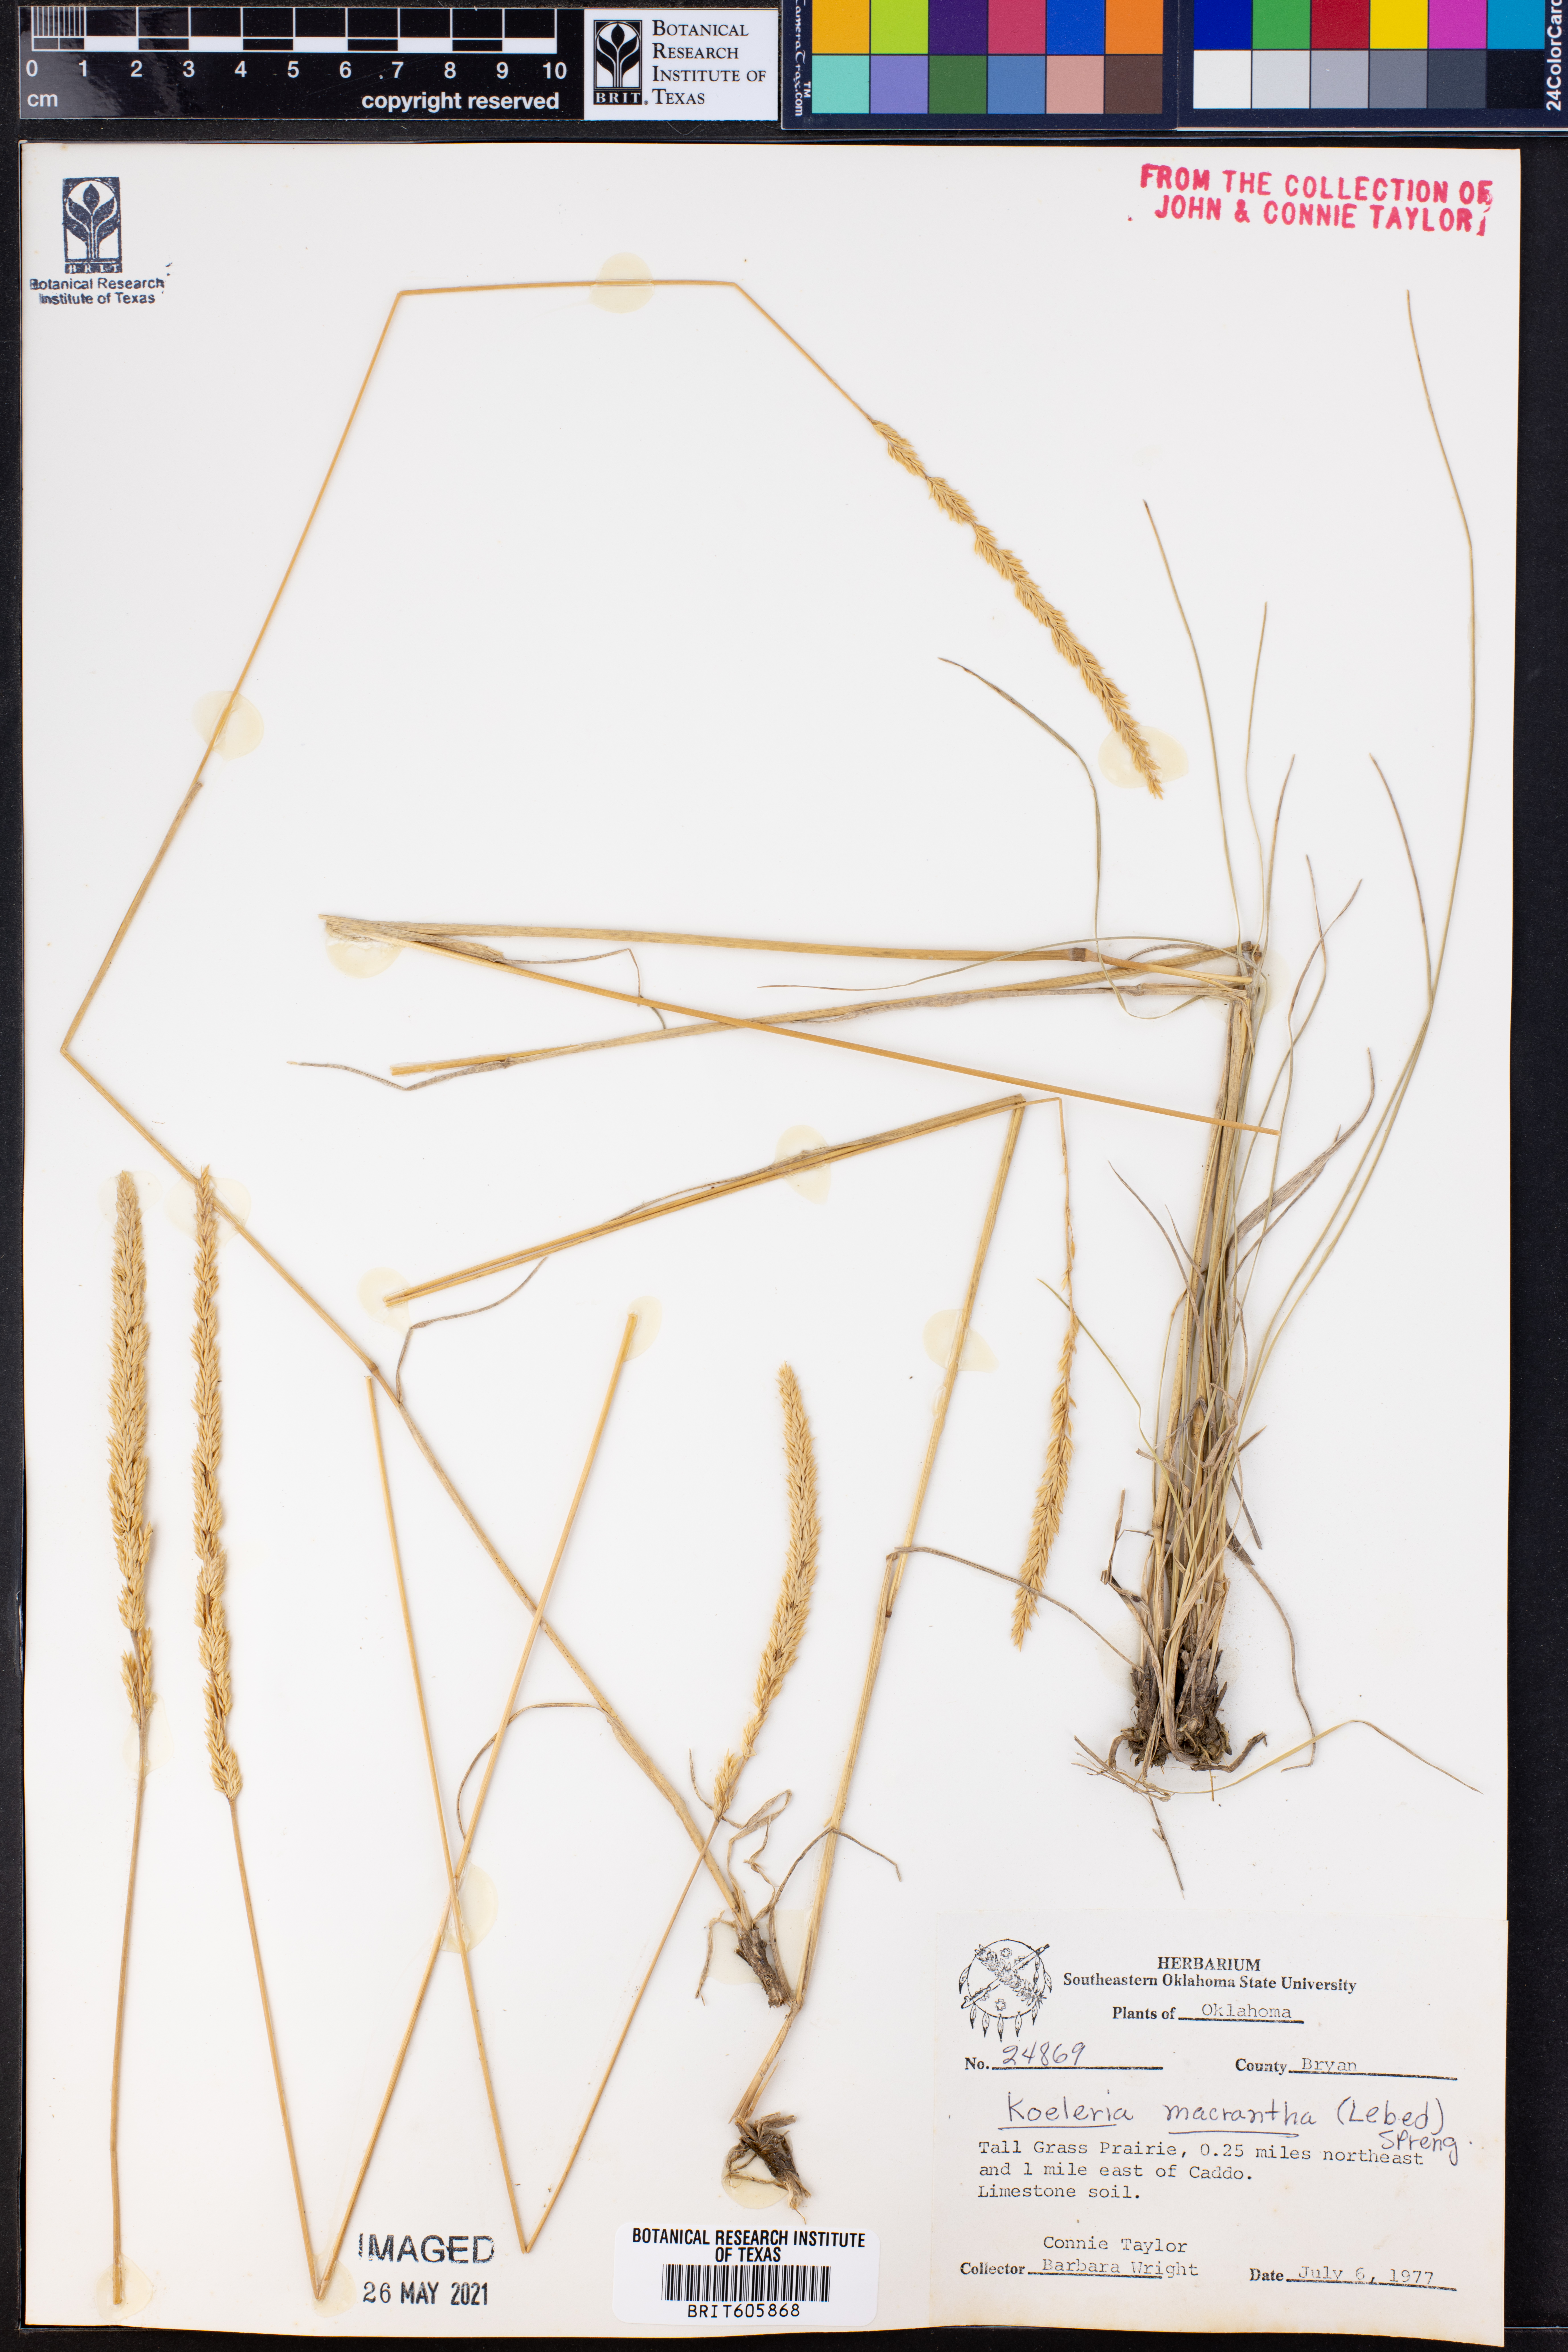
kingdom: Plantae
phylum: Tracheophyta
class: Liliopsida
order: Poales
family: Poaceae
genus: Koeleria
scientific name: Koeleria macrantha
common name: Crested hair-grass
